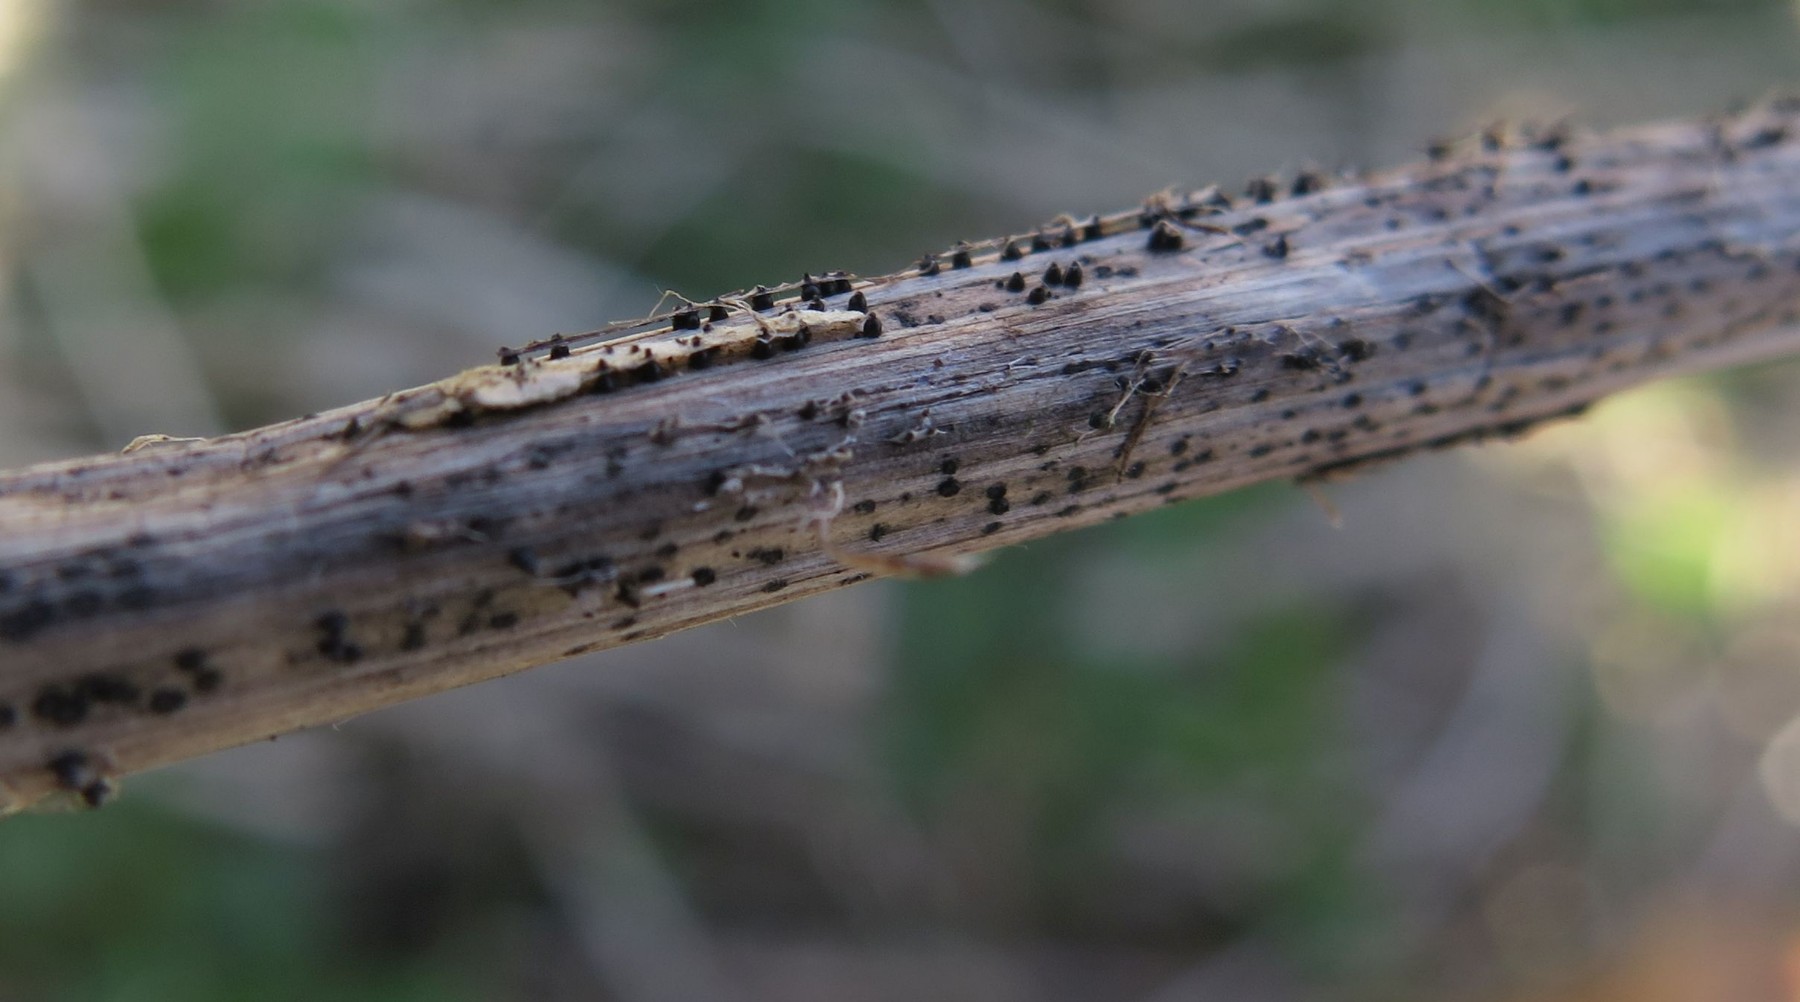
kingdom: Fungi
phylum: Ascomycota
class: Dothideomycetes
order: Pleosporales
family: Leptosphaeriaceae
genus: Leptosphaeria
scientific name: Leptosphaeria acuta
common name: spids kulkegle
